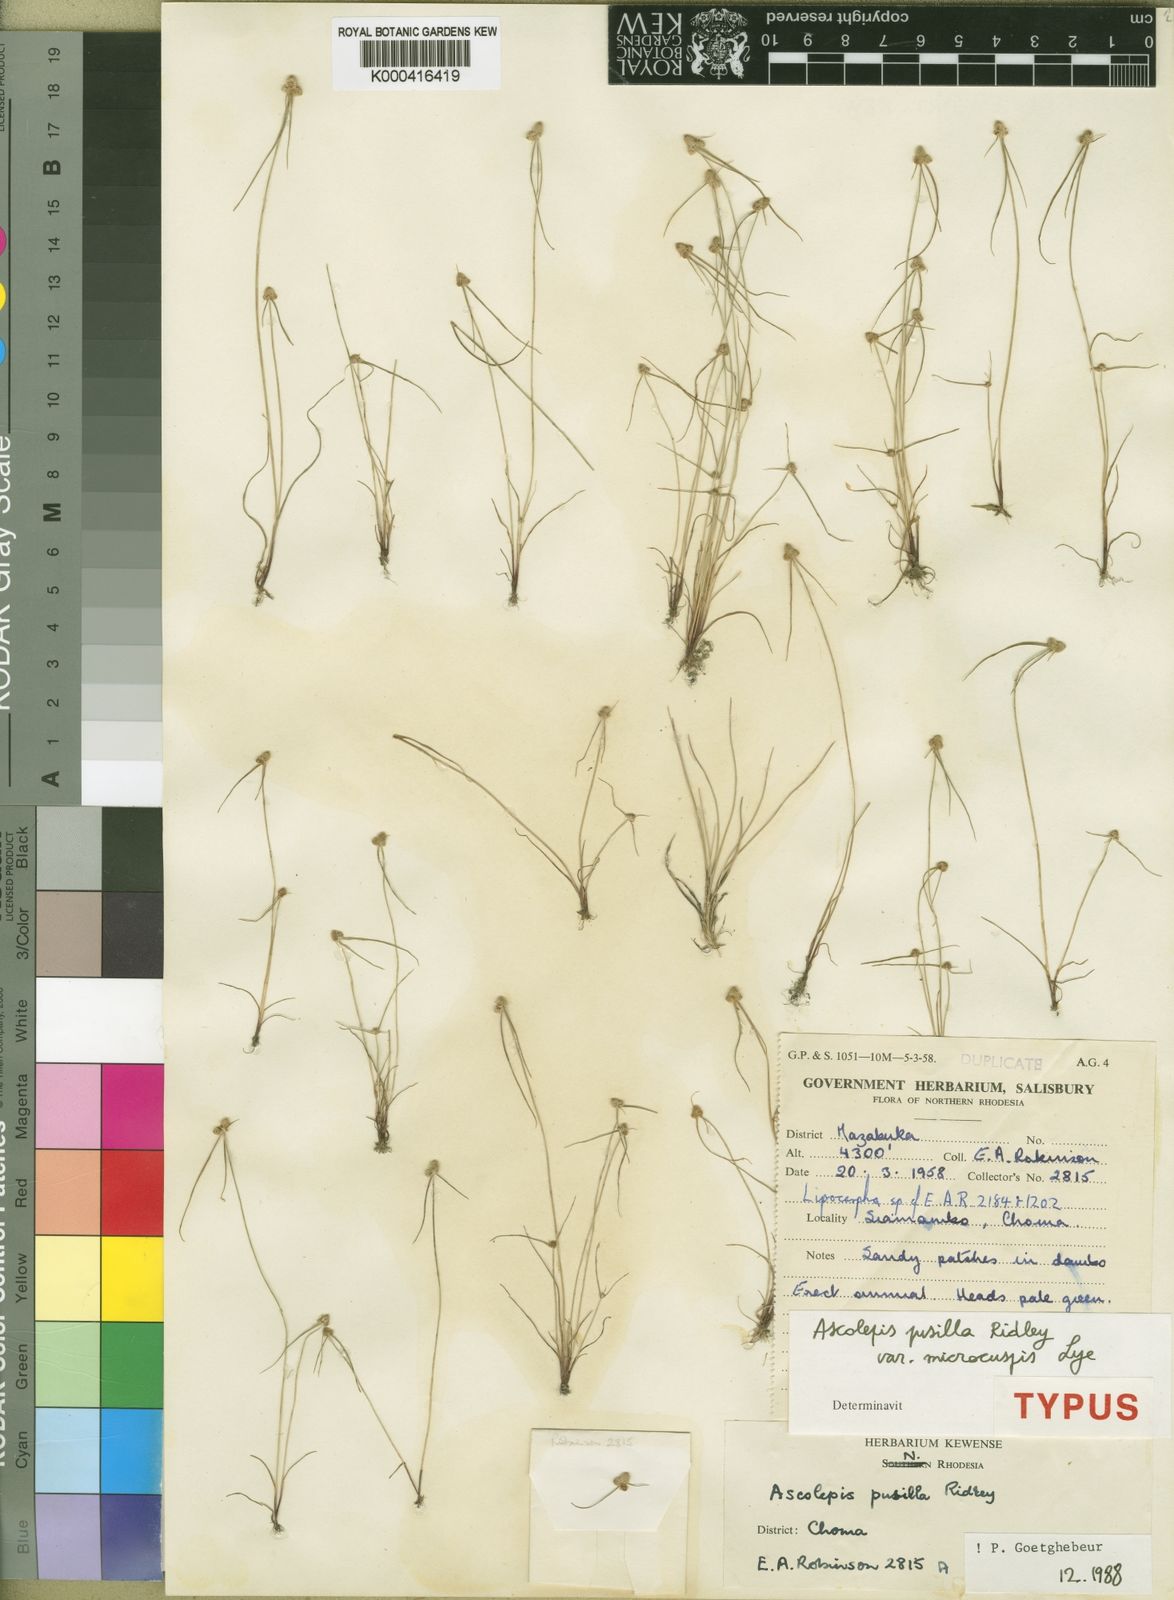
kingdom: Plantae
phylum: Tracheophyta
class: Liliopsida
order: Poales
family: Cyperaceae
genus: Cyperus
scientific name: Cyperus ascopusillus
